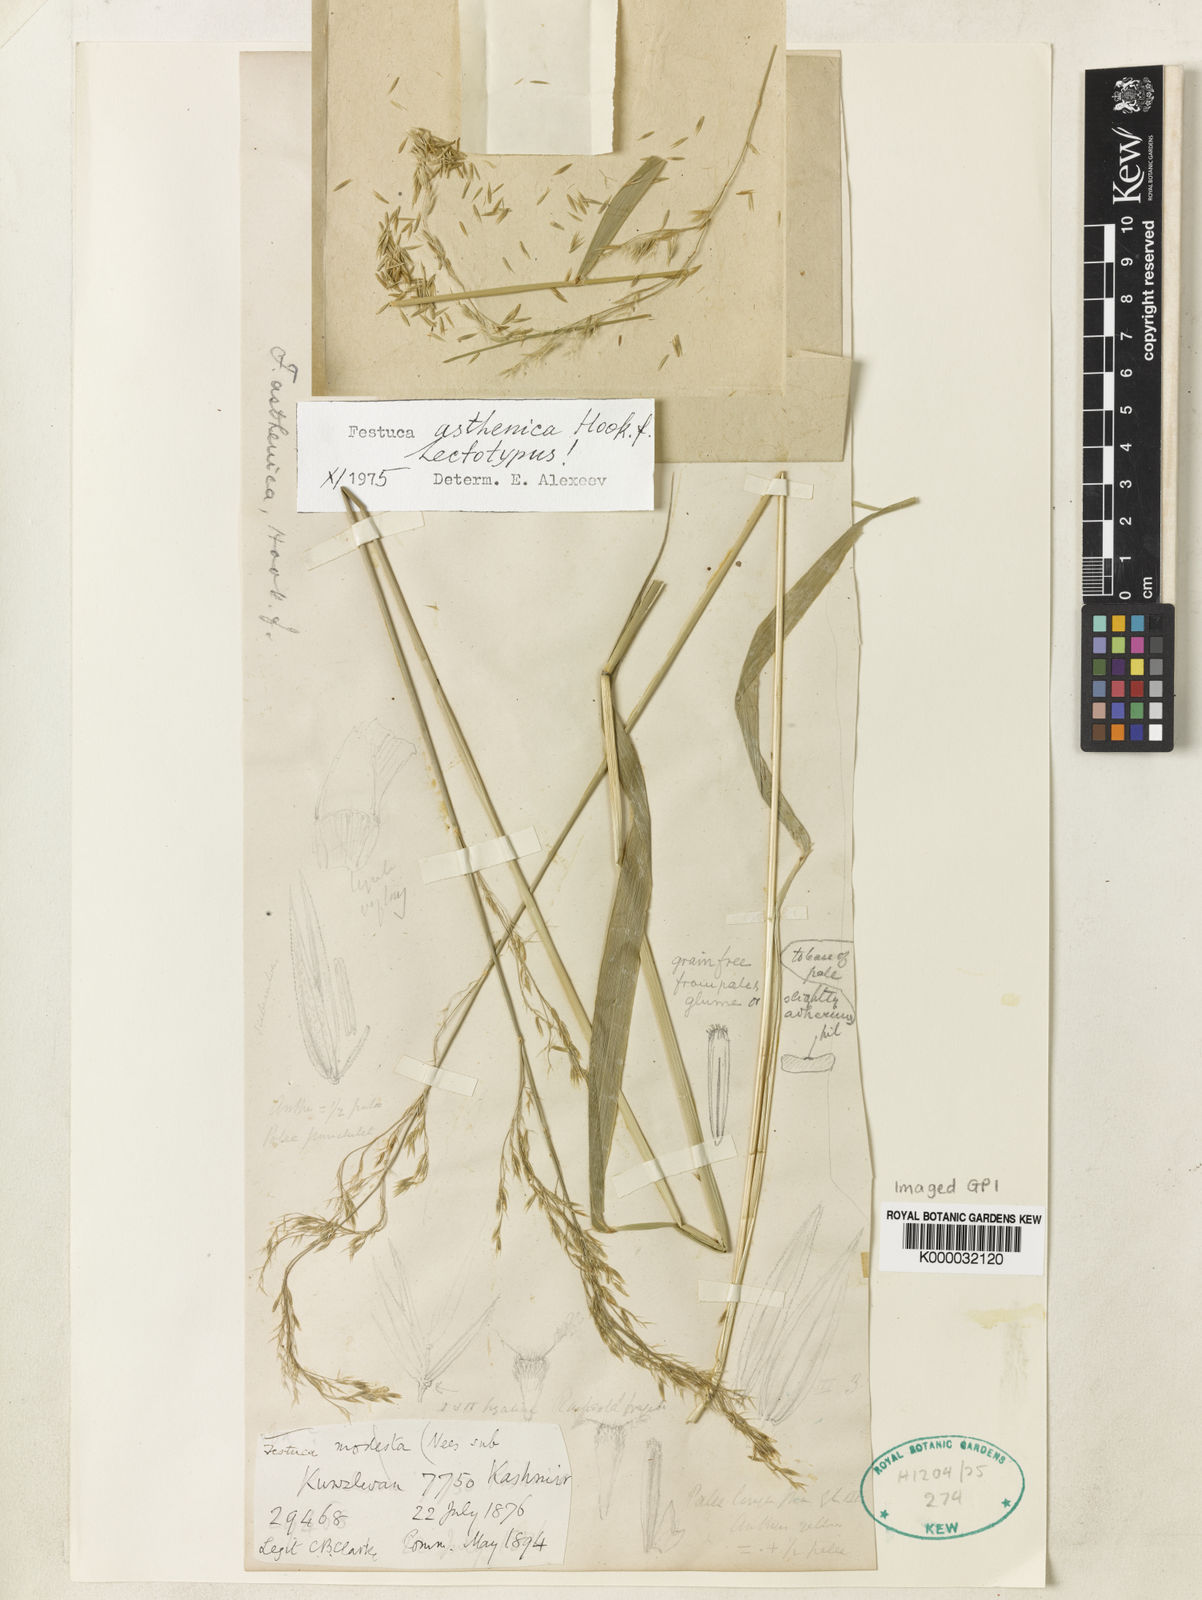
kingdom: Plantae
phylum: Tracheophyta
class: Liliopsida
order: Poales
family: Poaceae
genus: Festuca
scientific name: Festuca
